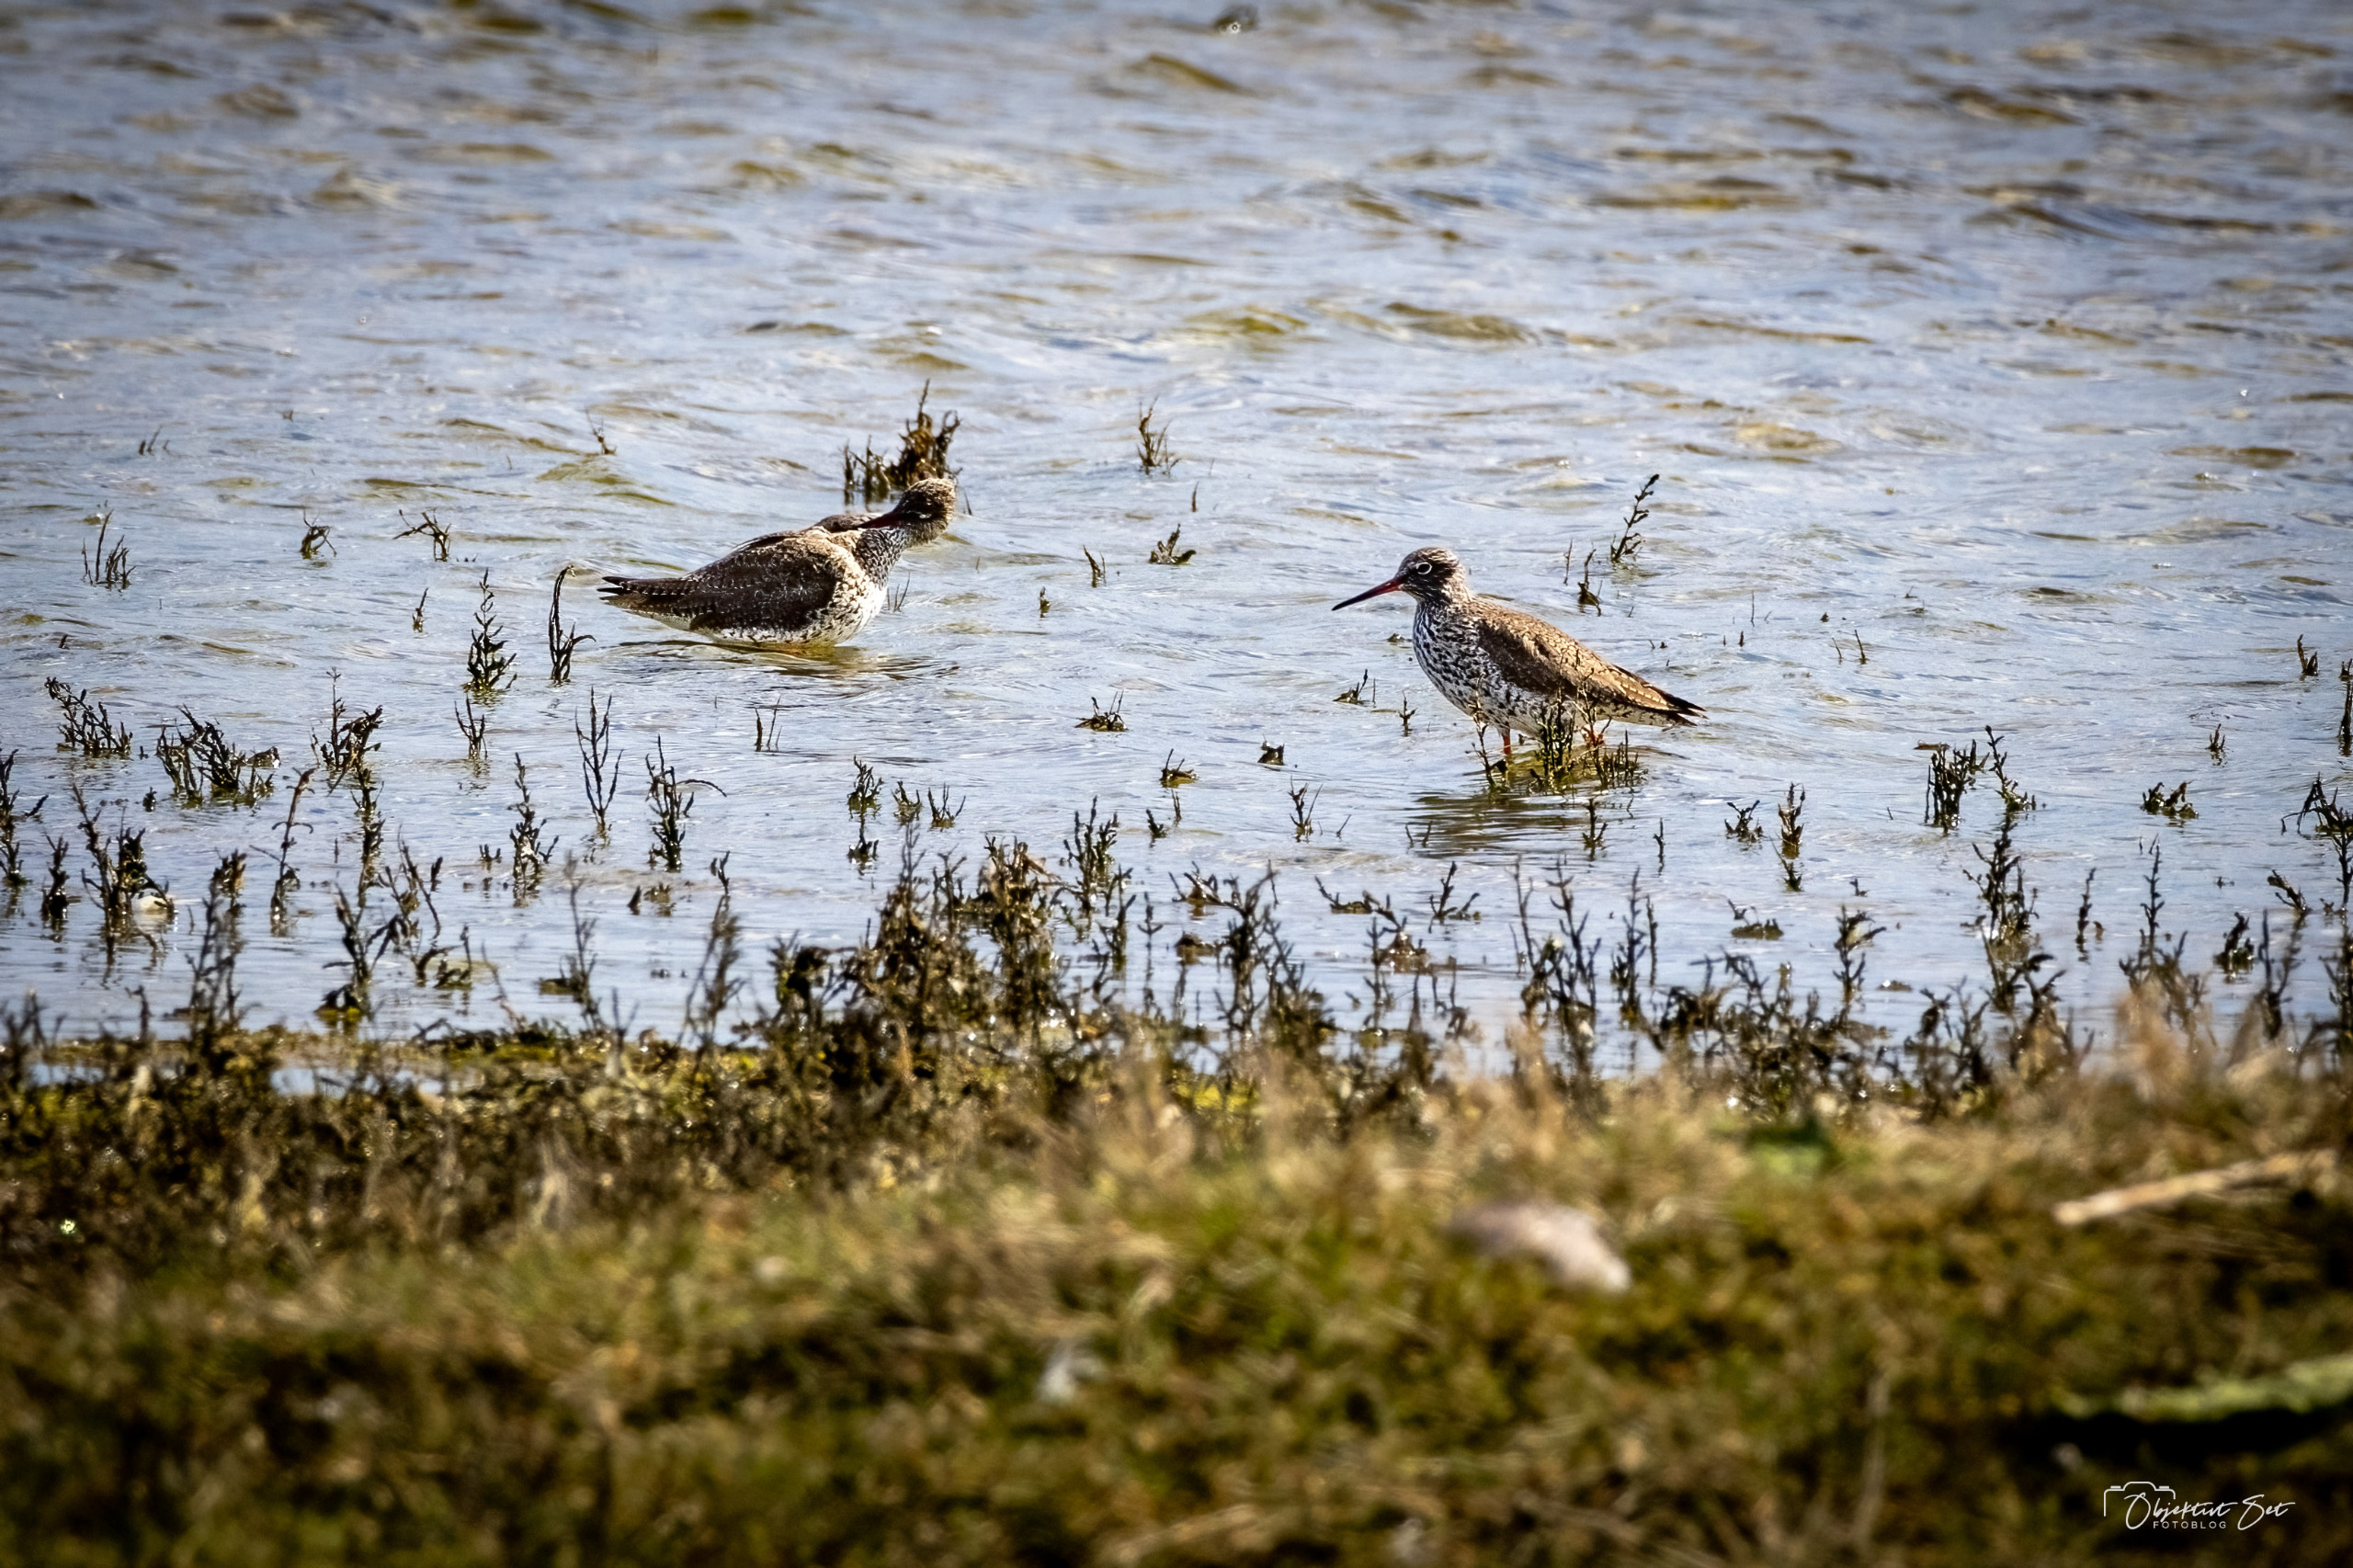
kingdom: Animalia
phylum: Chordata
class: Aves
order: Charadriiformes
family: Scolopacidae
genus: Tringa
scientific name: Tringa totanus
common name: Rødben
